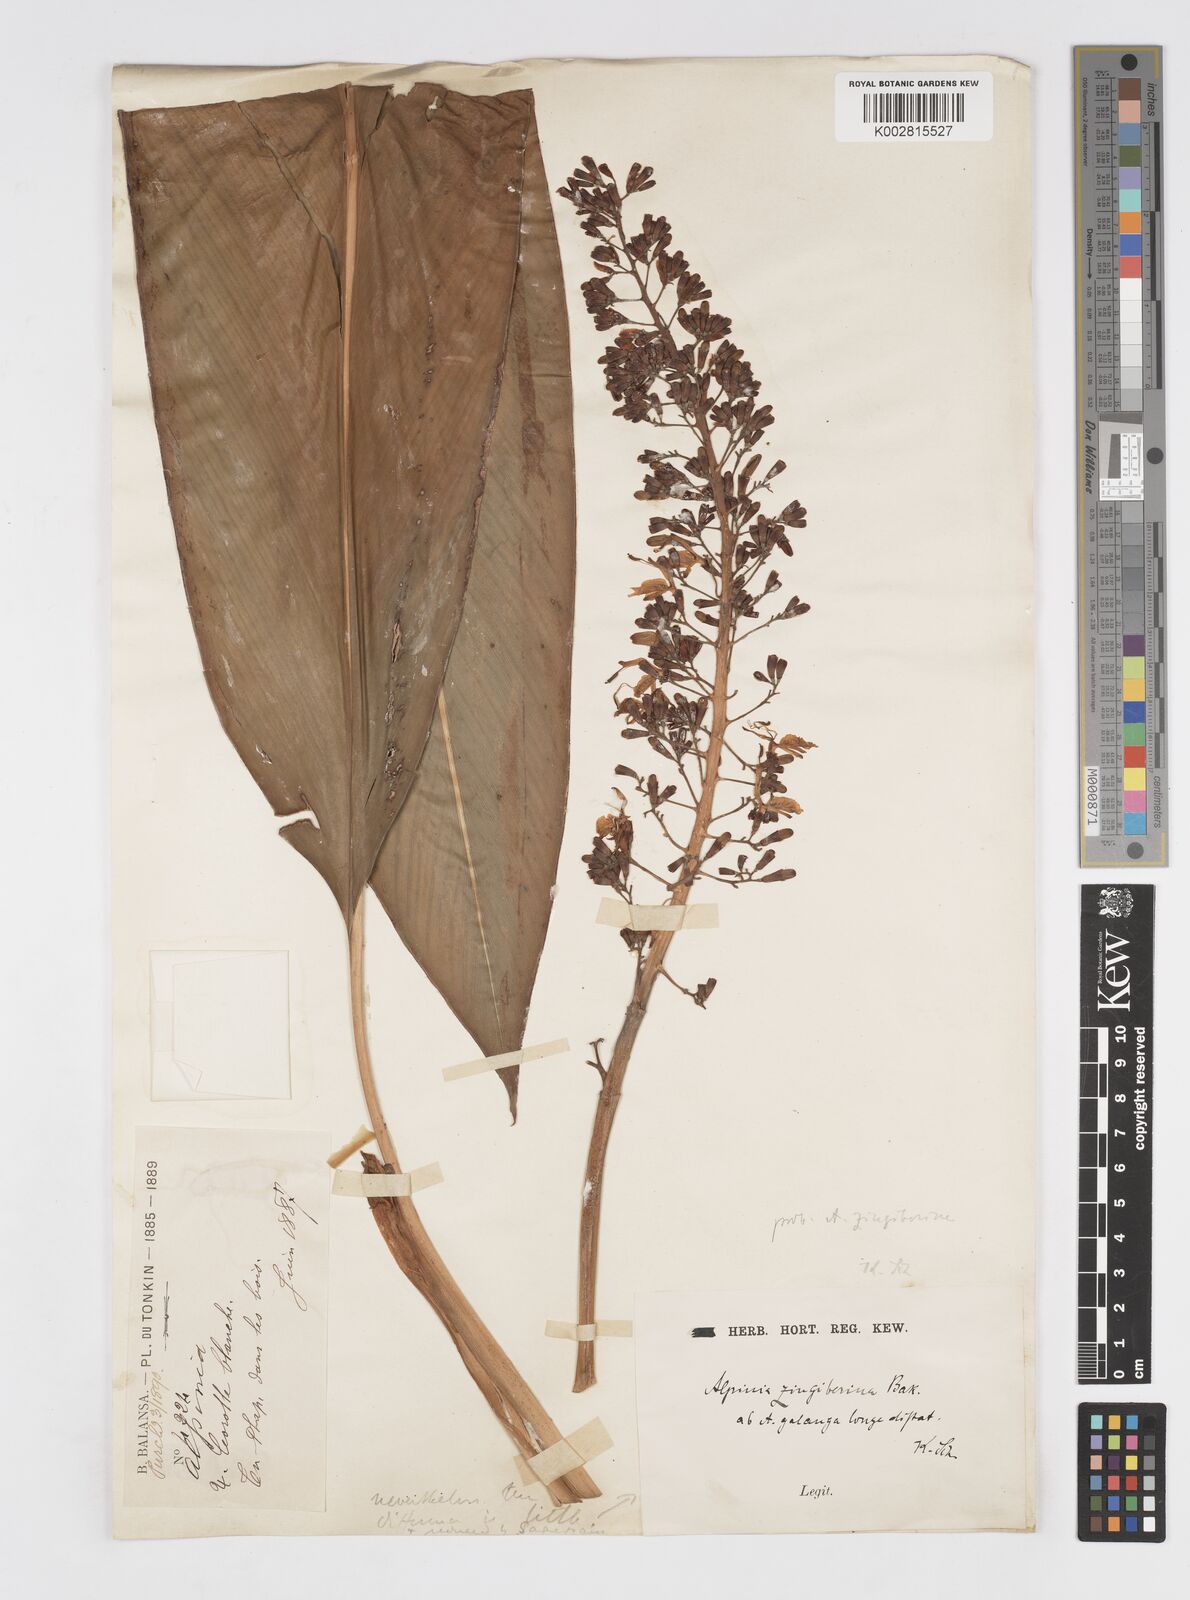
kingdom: Plantae
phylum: Tracheophyta
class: Liliopsida
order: Zingiberales
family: Zingiberaceae
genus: Alpinia
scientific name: Alpinia siamensis
